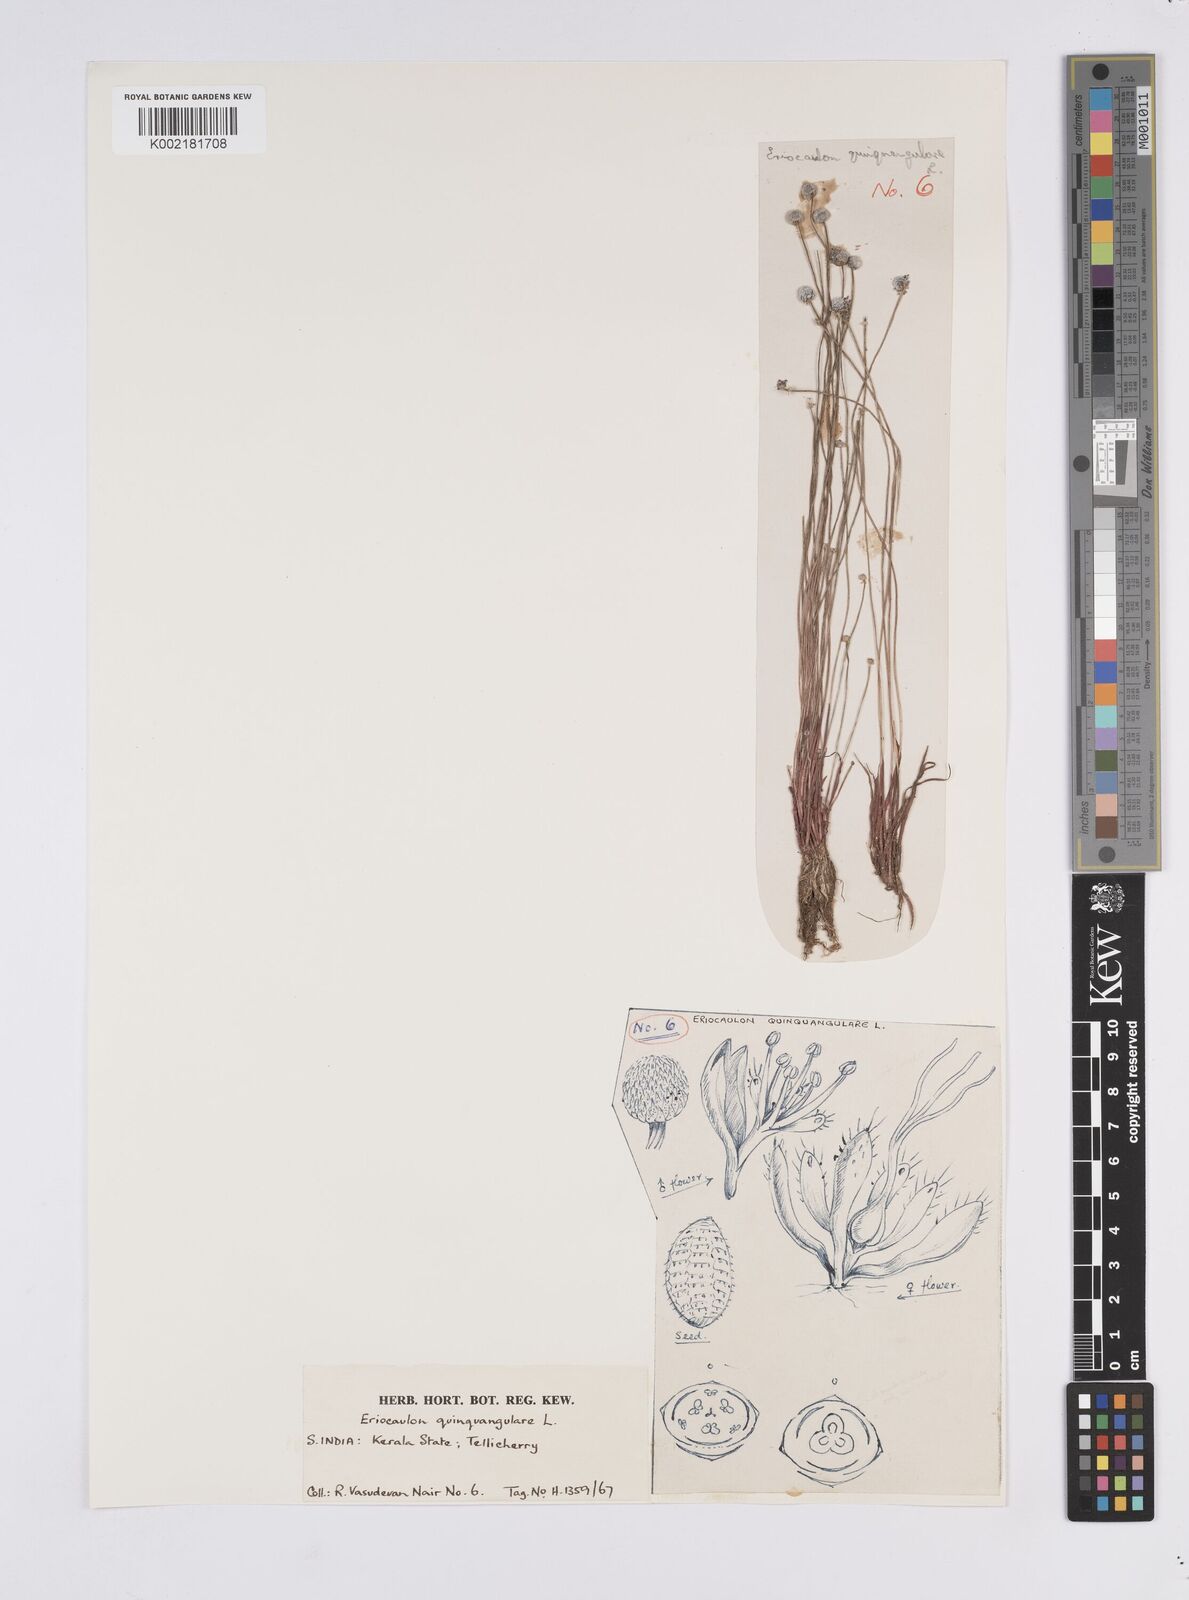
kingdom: Plantae
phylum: Tracheophyta
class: Liliopsida
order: Poales
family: Eriocaulaceae
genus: Eriocaulon
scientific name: Eriocaulon quinquangulare
